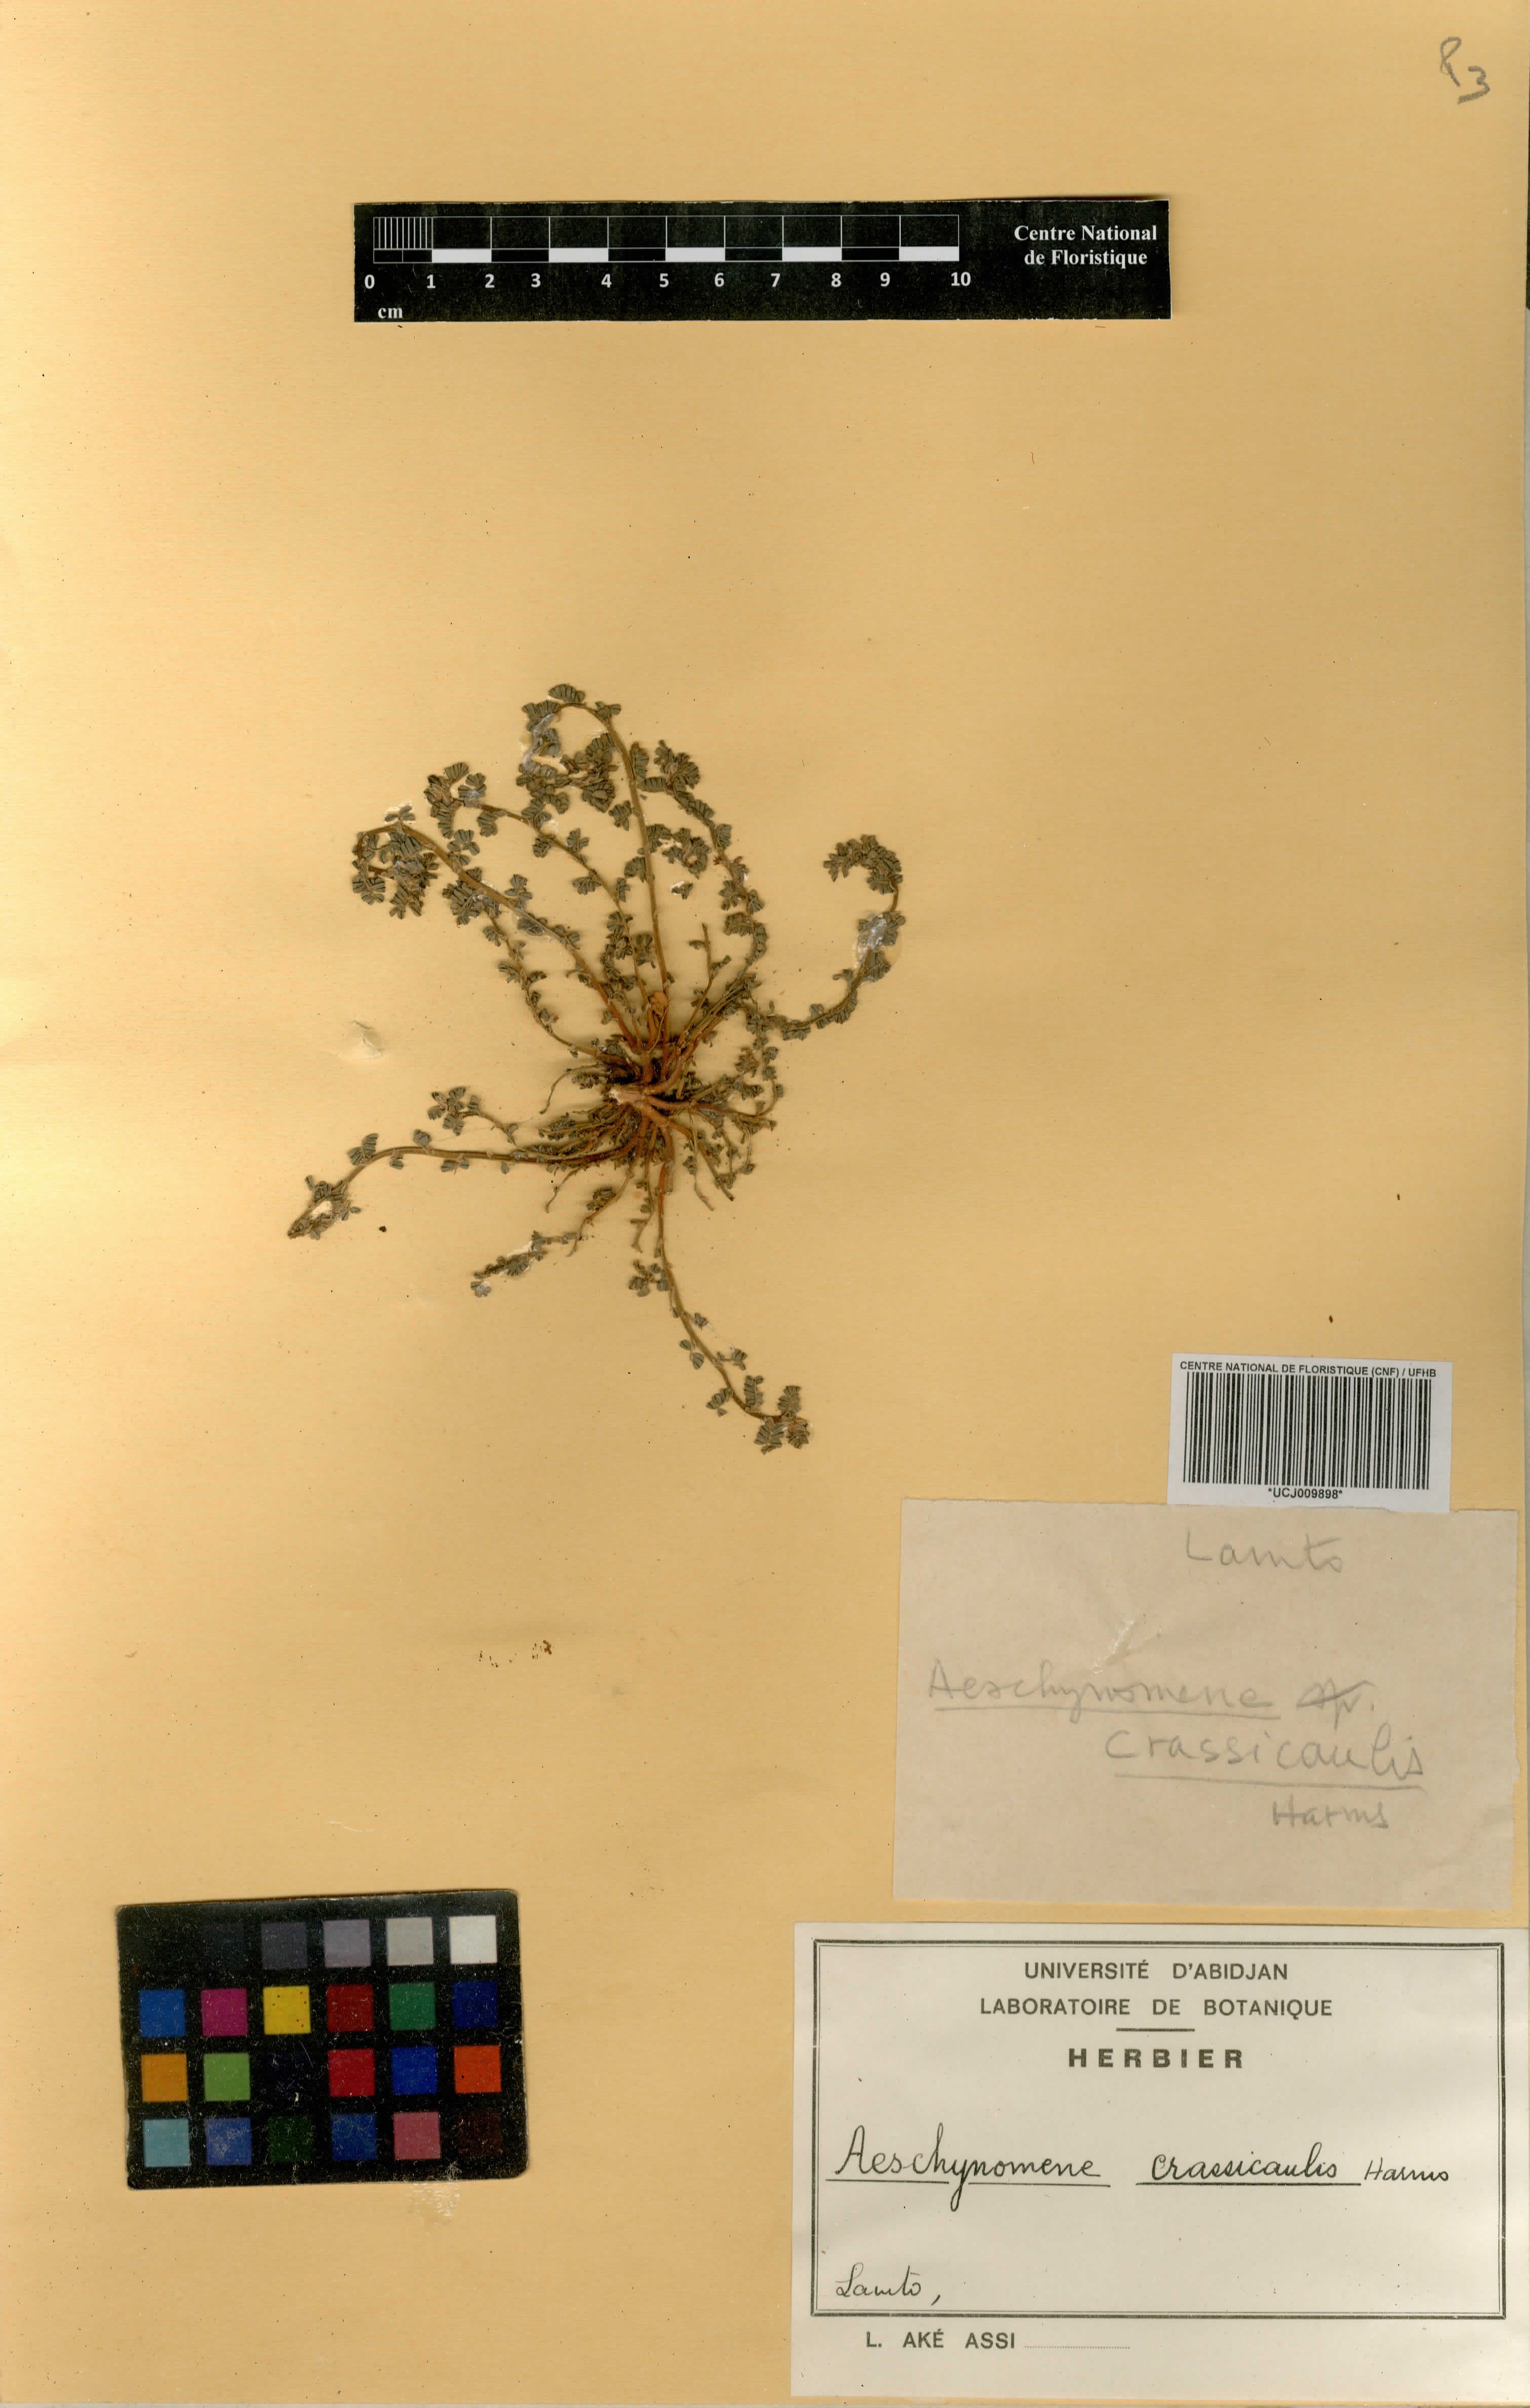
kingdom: Plantae
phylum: Tracheophyta
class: Magnoliopsida
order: Fabales
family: Fabaceae
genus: Aeschynomene
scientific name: Aeschynomene crassicaulis
